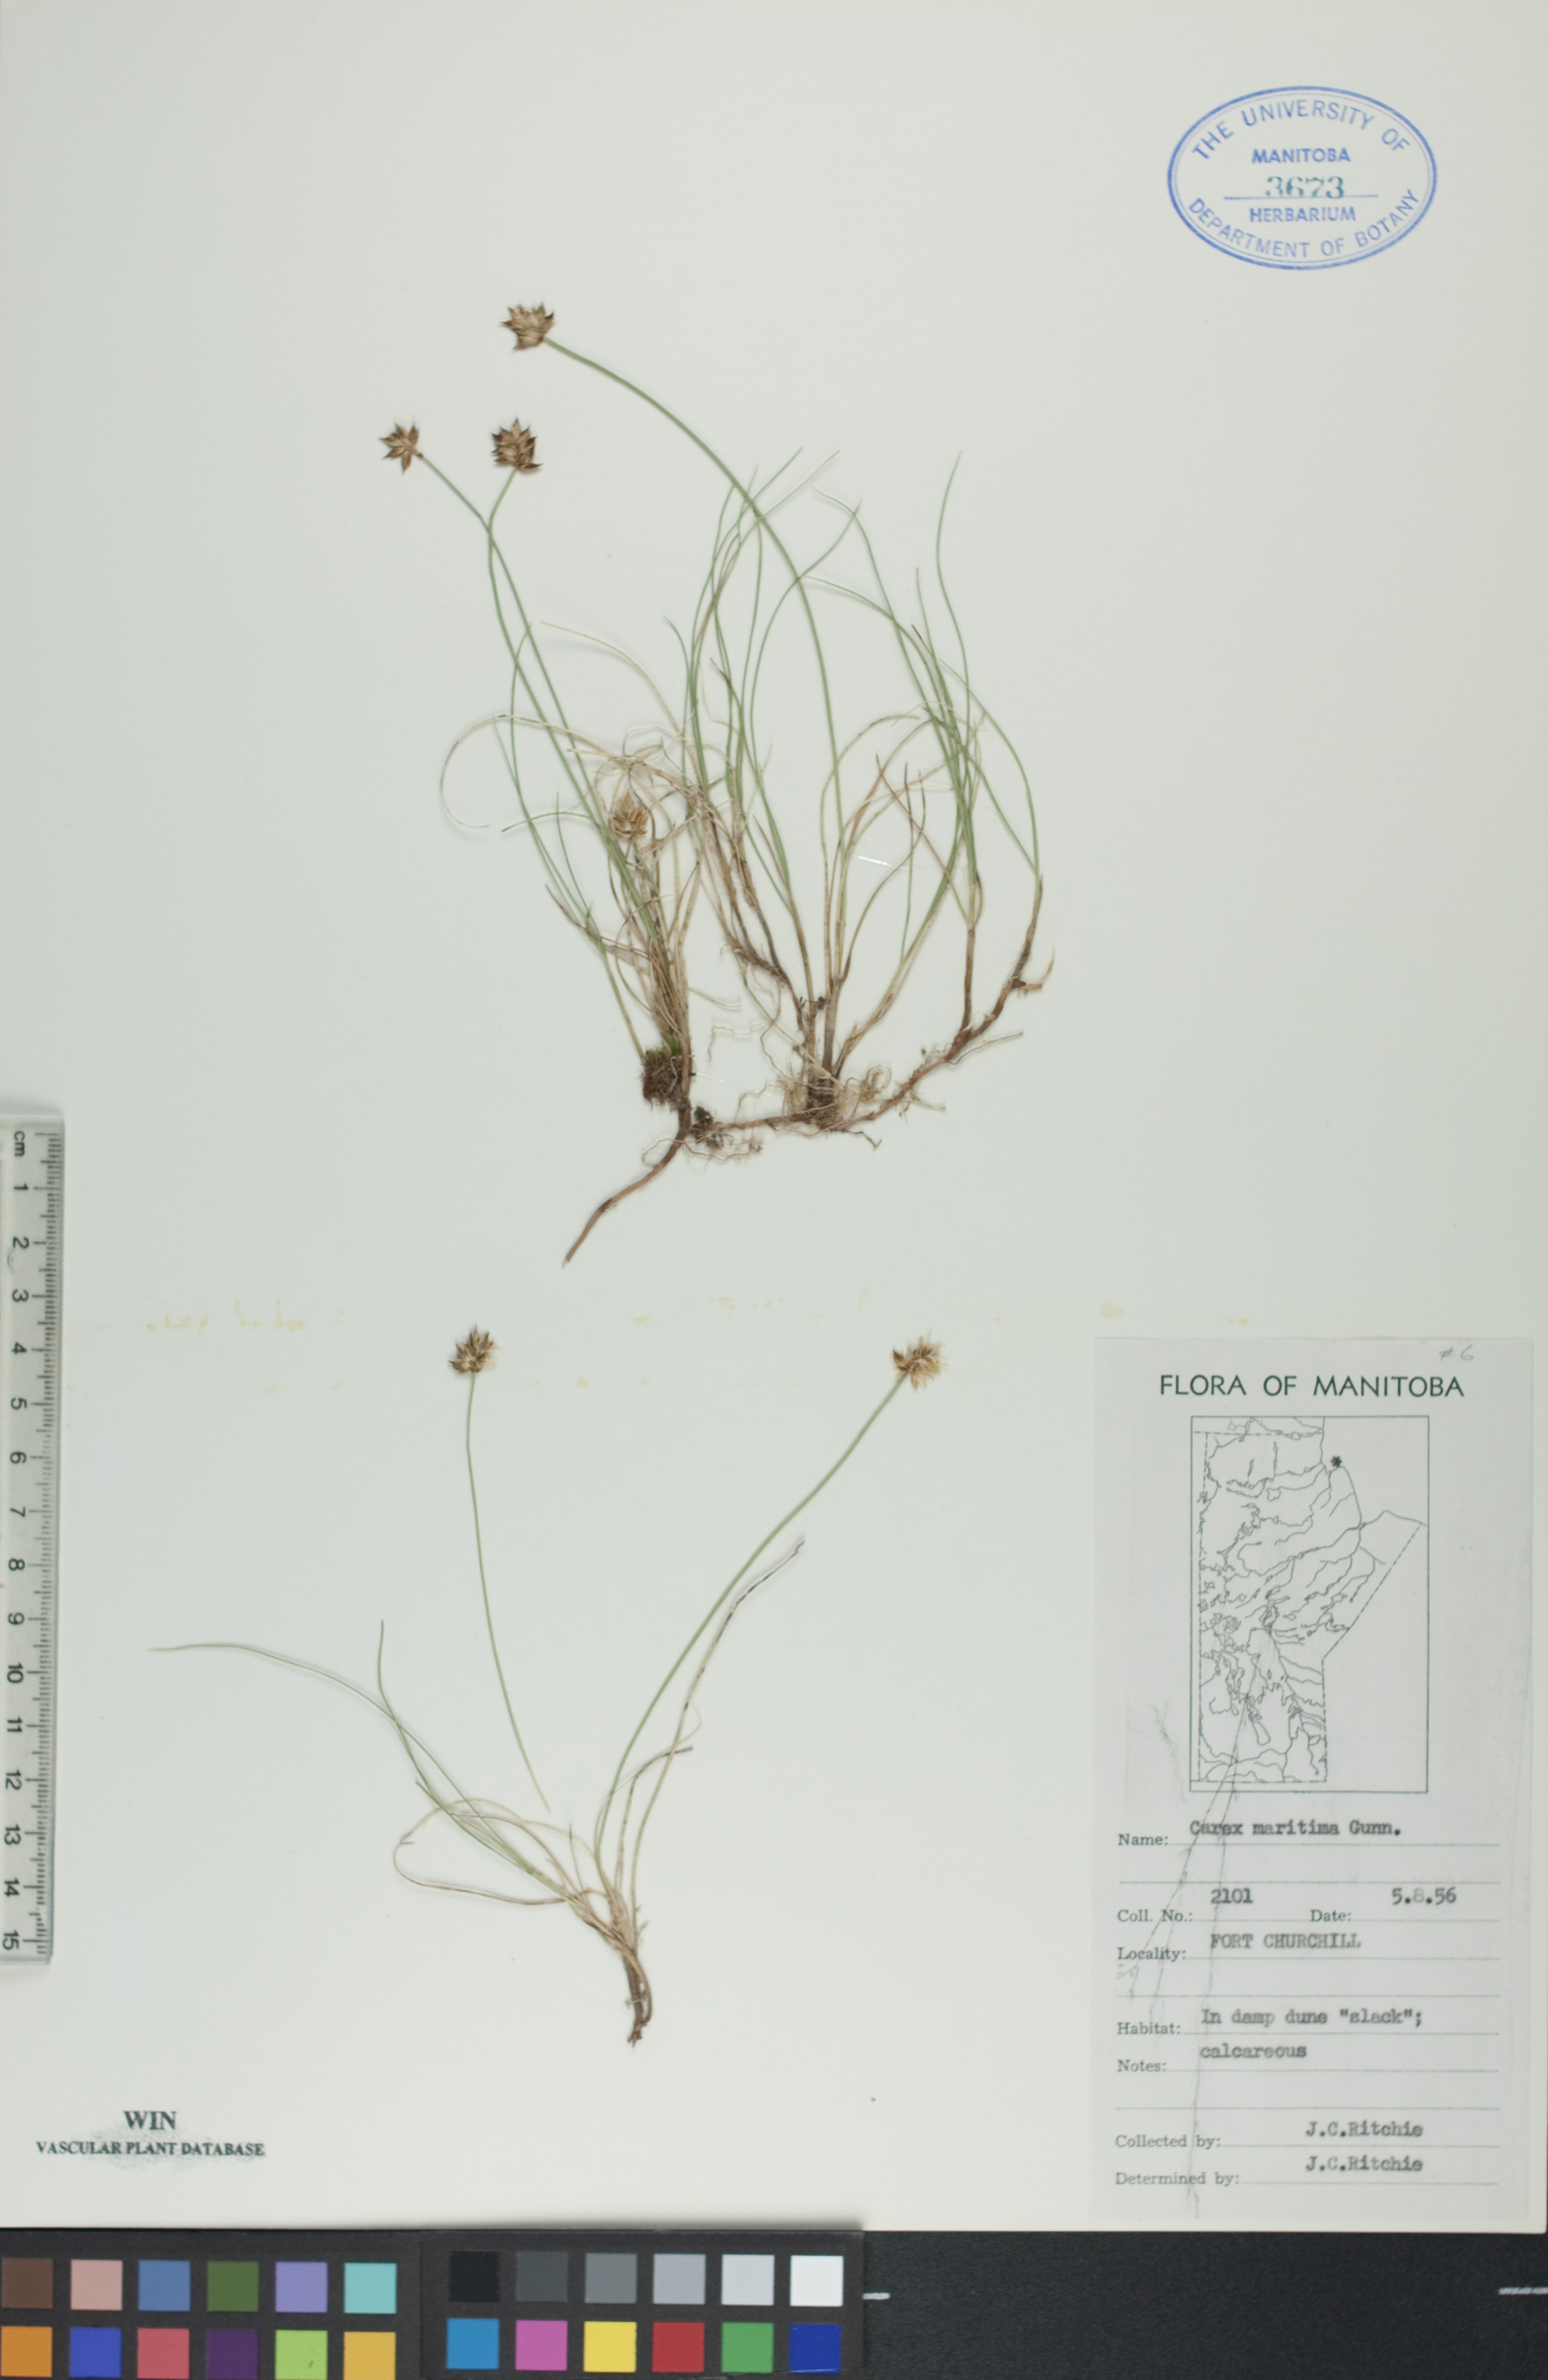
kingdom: Plantae
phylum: Tracheophyta
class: Liliopsida
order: Poales
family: Cyperaceae
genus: Carex
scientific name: Carex maritima
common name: Curved sedge
